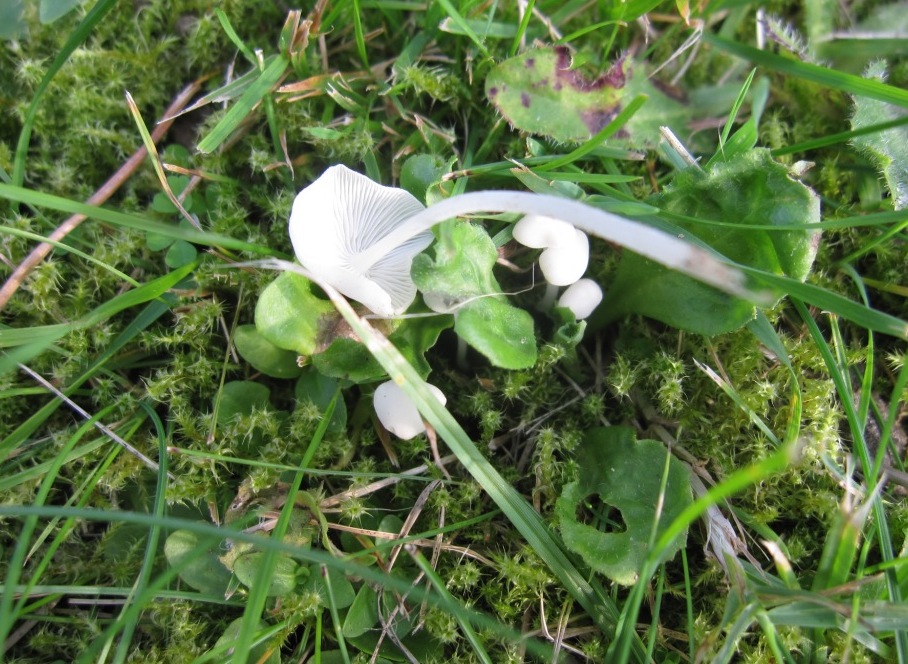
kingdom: Fungi
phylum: Basidiomycota
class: Agaricomycetes
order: Agaricales
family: Mycenaceae
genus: Hemimycena
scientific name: Hemimycena cucullata
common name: tætbladet huesvamp
